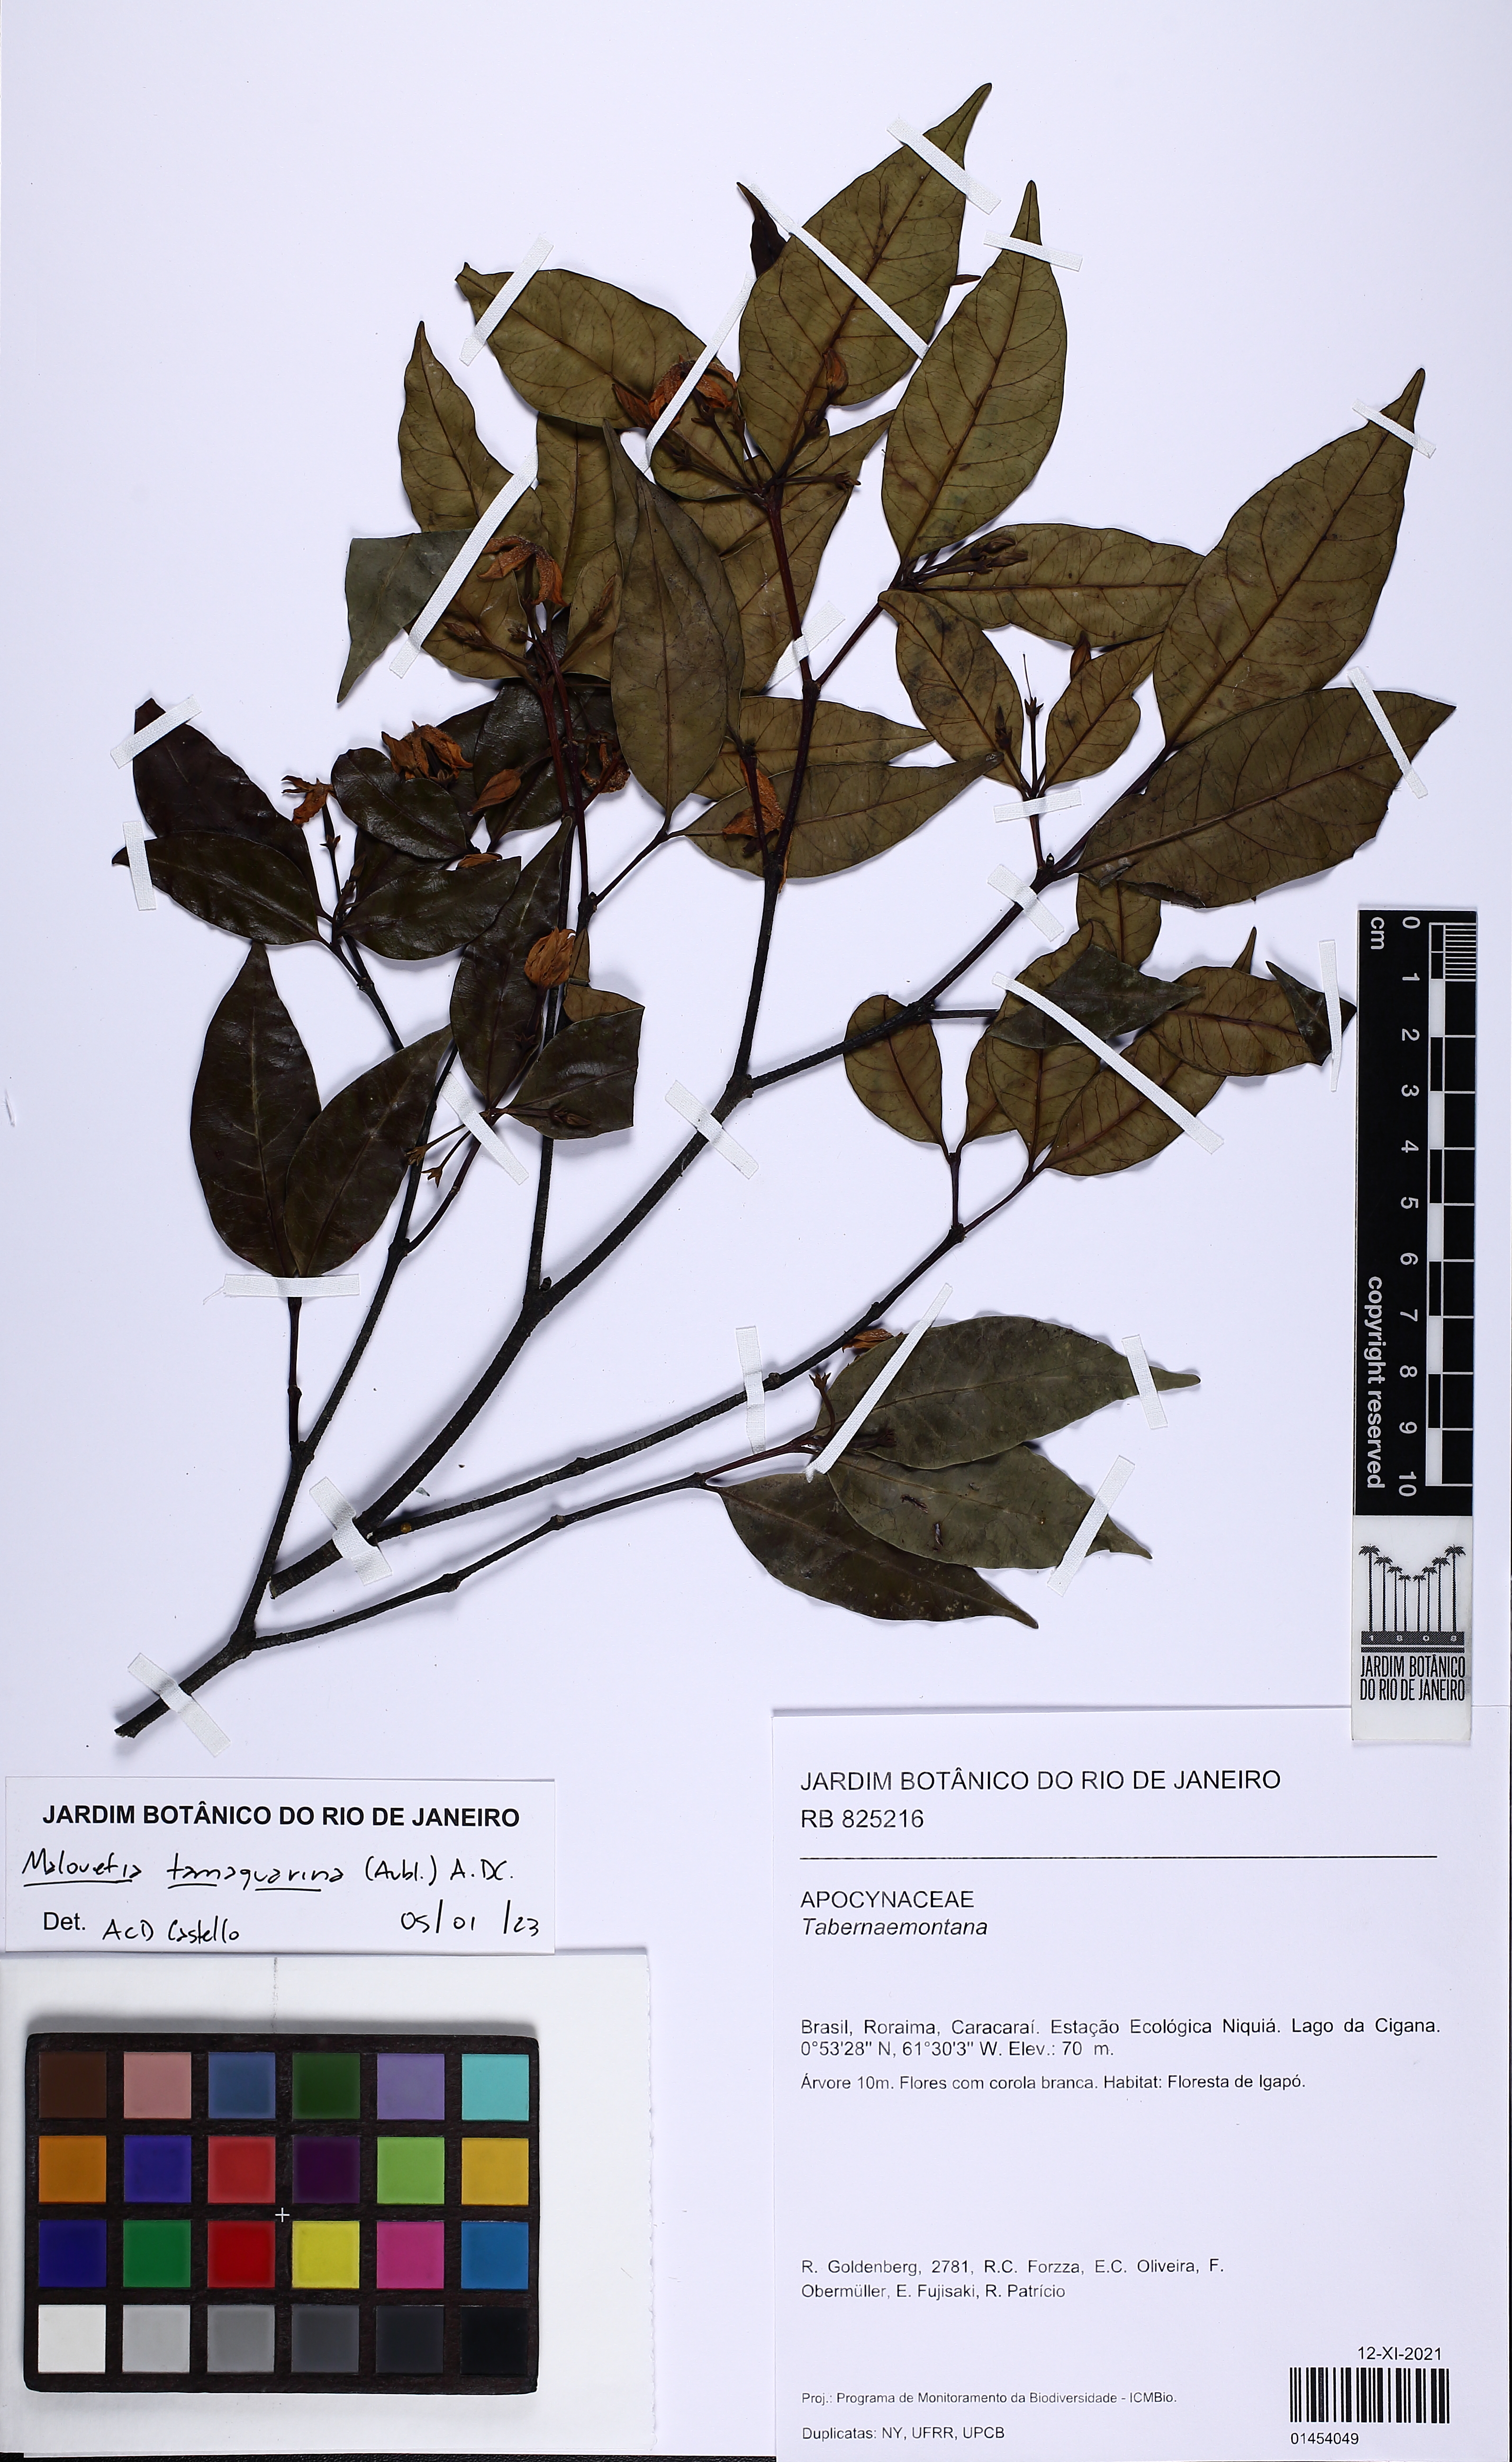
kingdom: Plantae
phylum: Tracheophyta
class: Magnoliopsida
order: Gentianales
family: Apocynaceae
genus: Malouetia
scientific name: Malouetia tamaquarina
